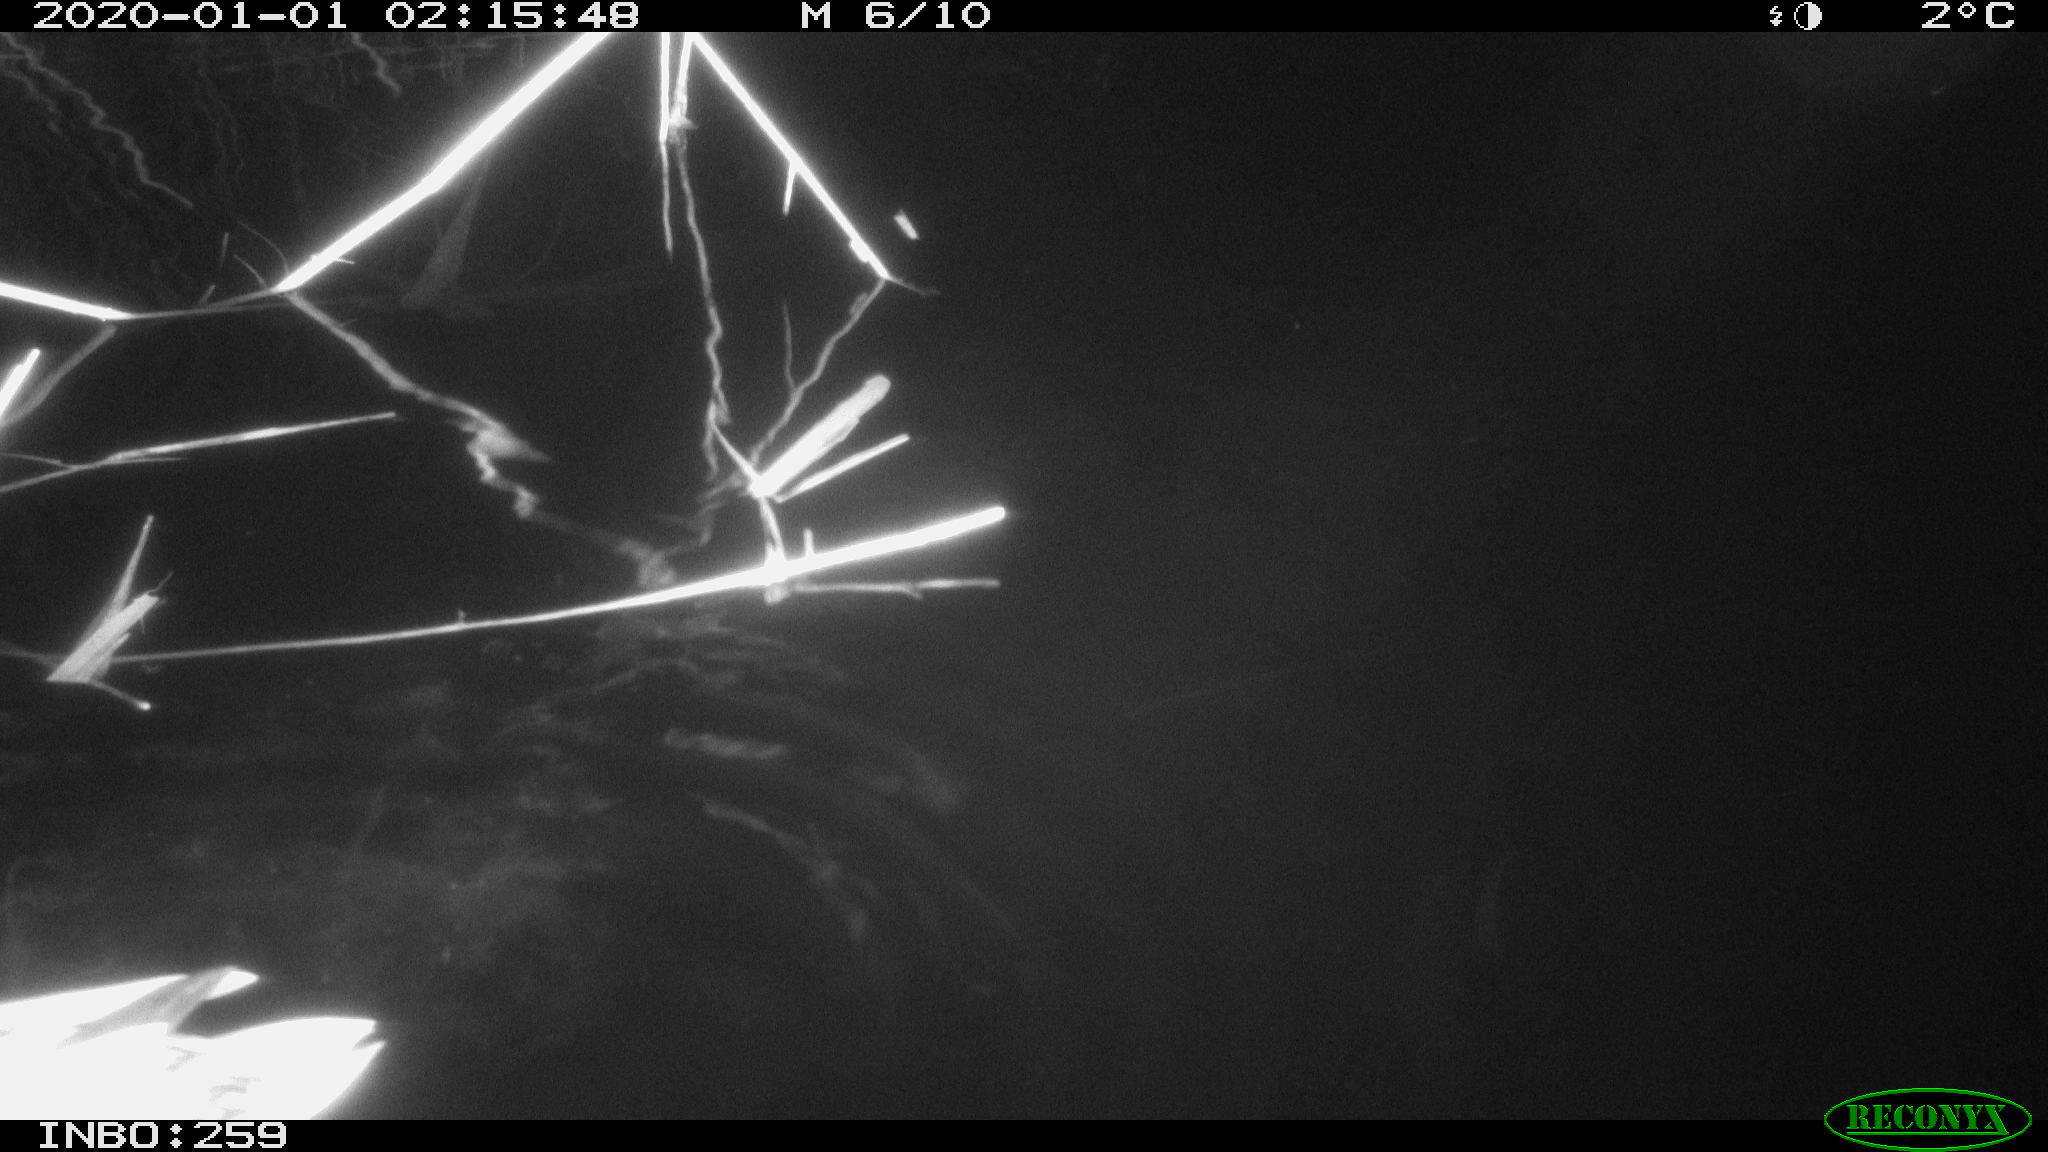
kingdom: Animalia
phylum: Chordata
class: Aves
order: Anseriformes
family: Anatidae
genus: Anas
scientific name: Anas platyrhynchos
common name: Mallard
